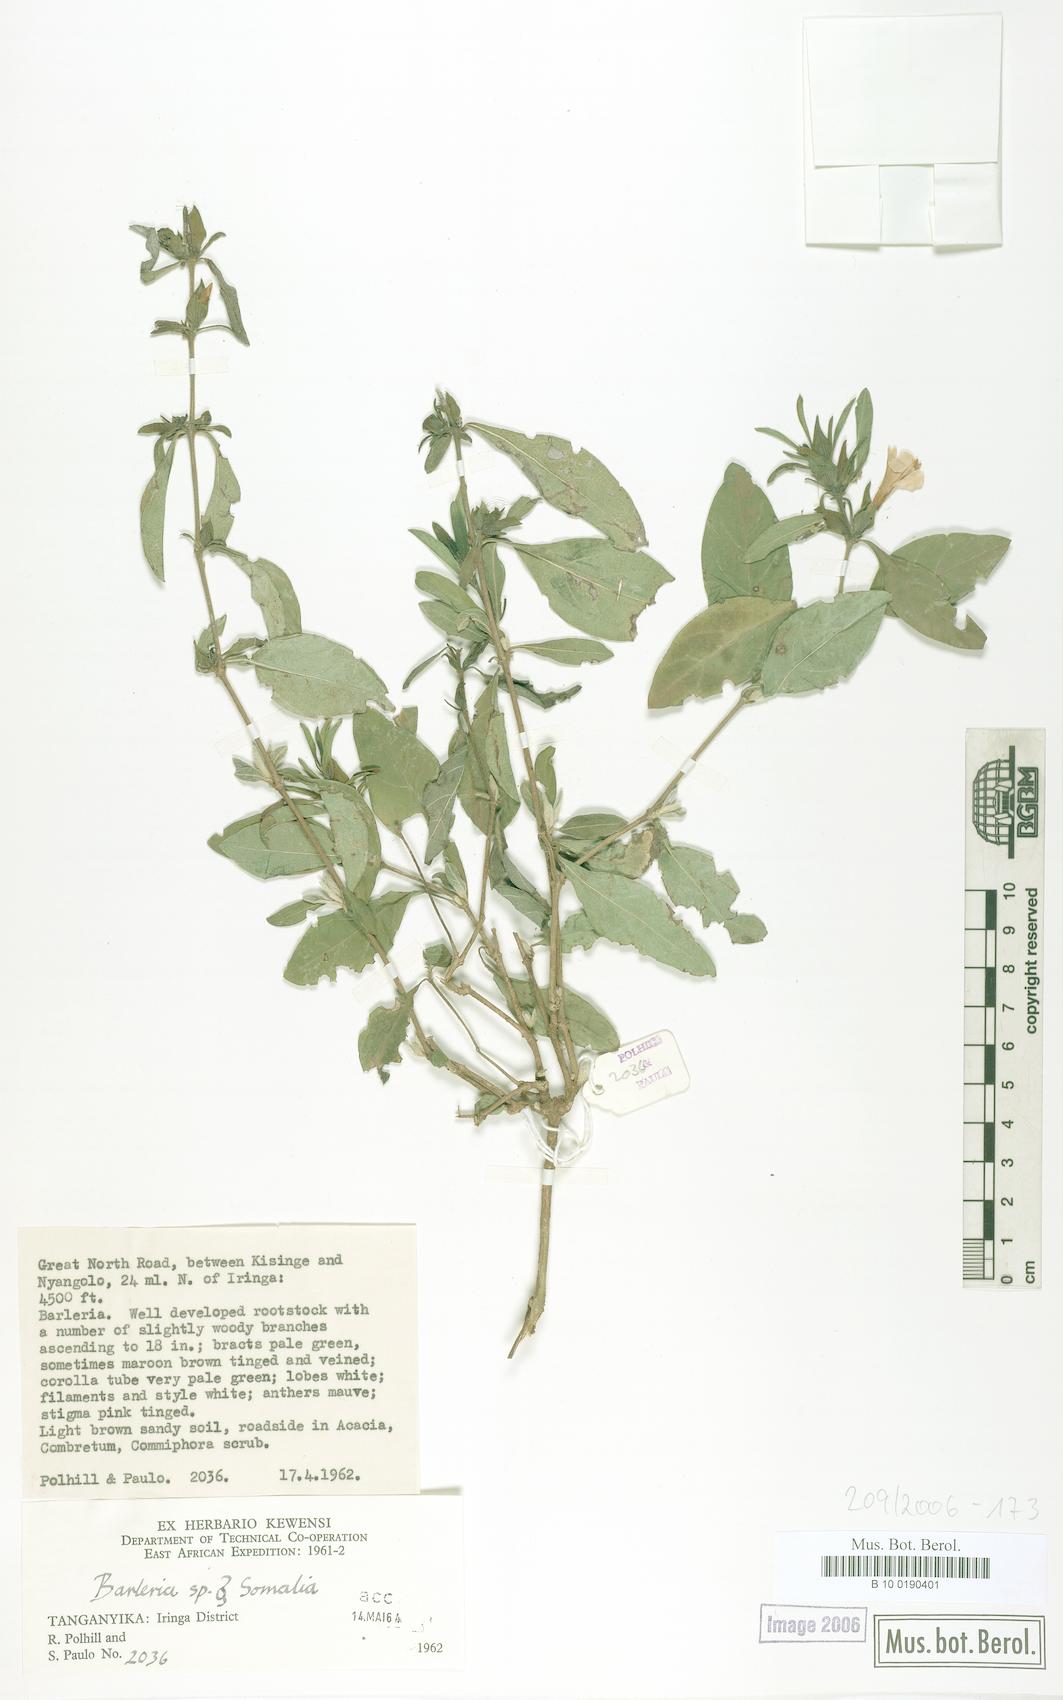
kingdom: Plantae
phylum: Tracheophyta
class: Magnoliopsida
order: Lamiales
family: Acanthaceae
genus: Barleria
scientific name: Barleria
